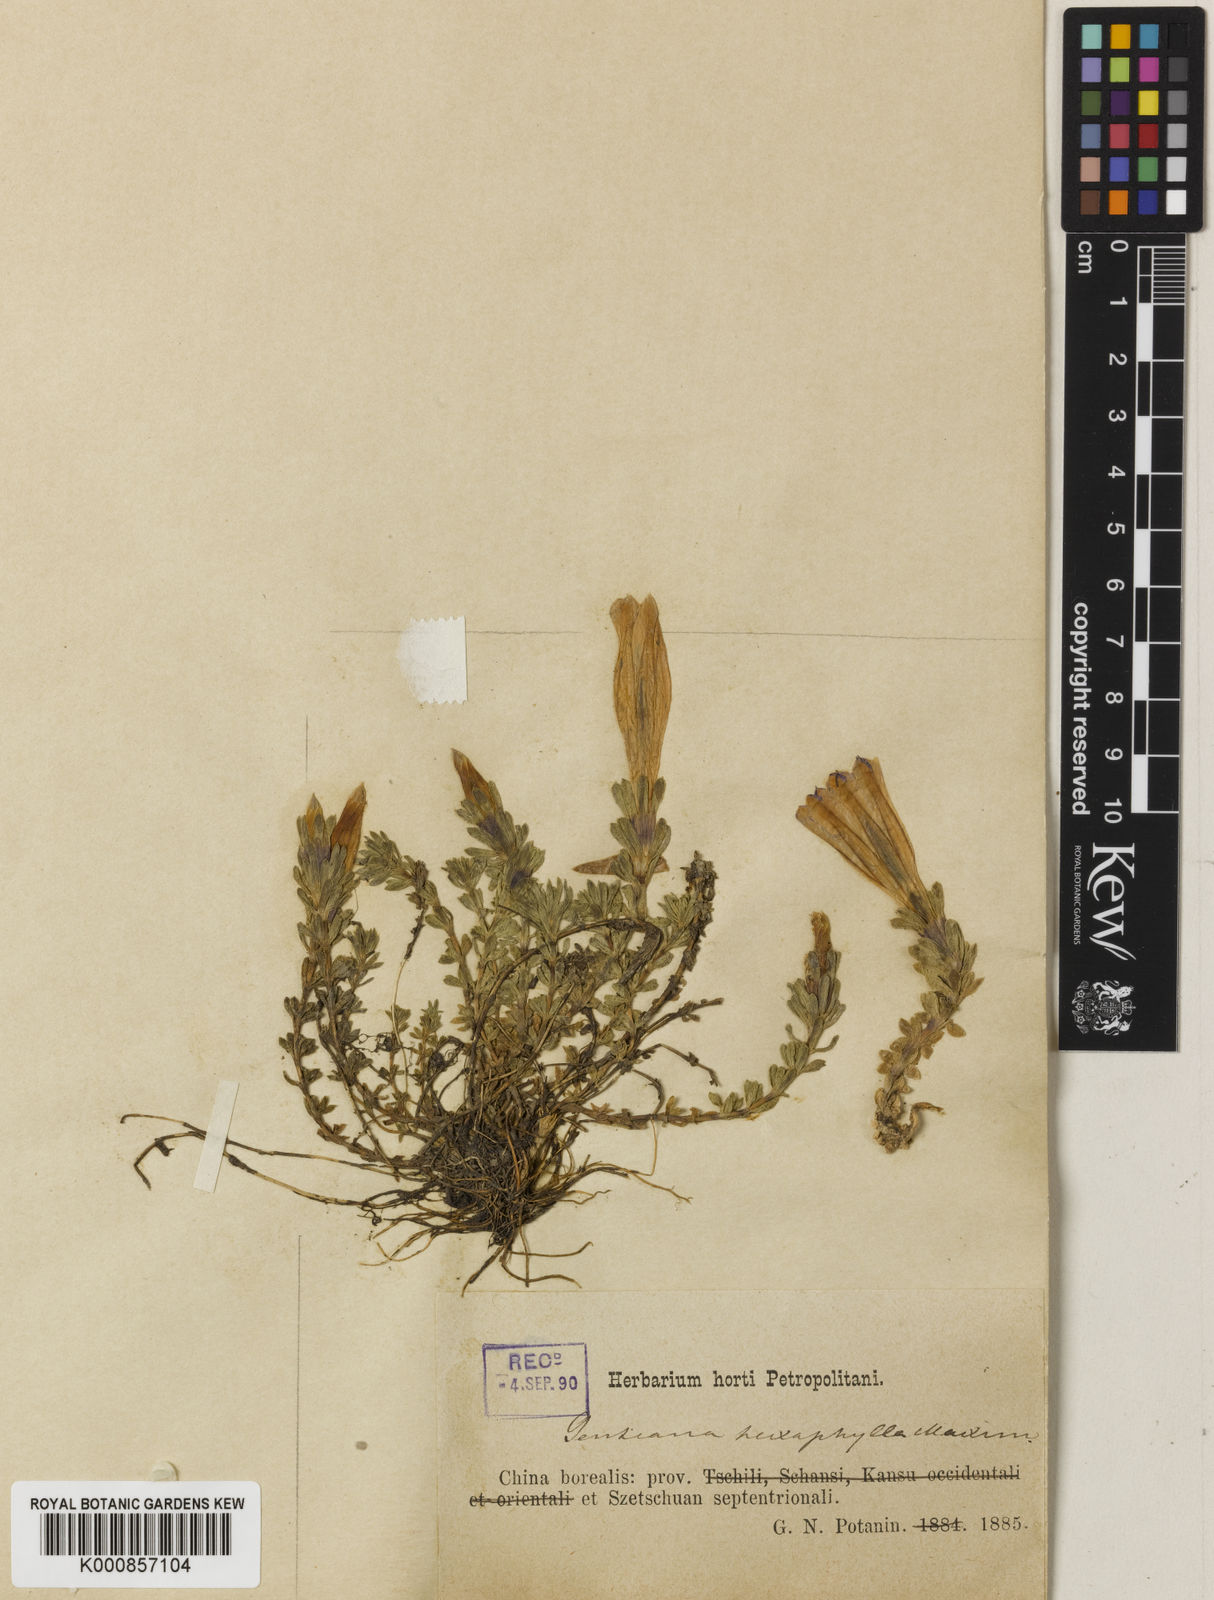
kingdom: Plantae
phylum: Tracheophyta
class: Magnoliopsida
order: Gentianales
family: Gentianaceae
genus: Gentiana
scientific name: Gentiana
